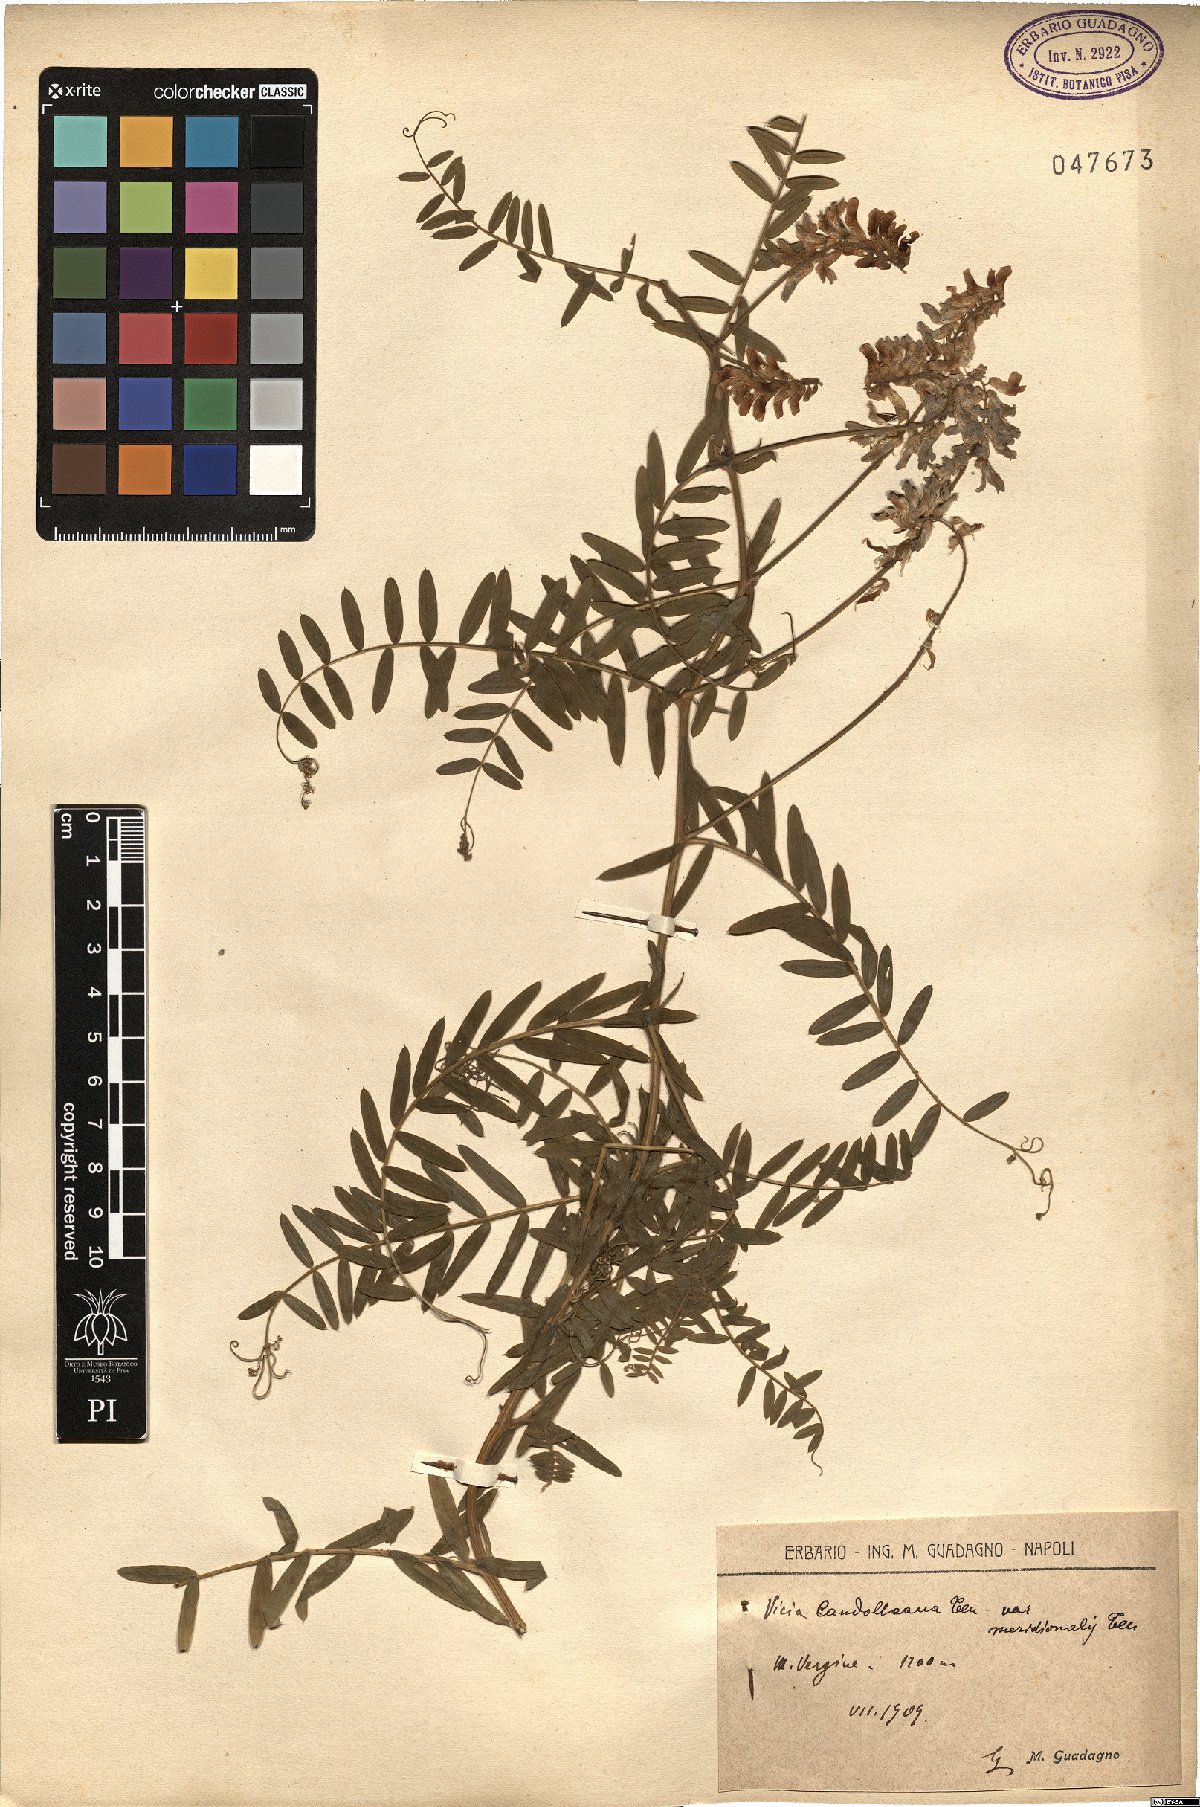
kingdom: Plantae
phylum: Tracheophyta
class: Magnoliopsida
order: Fabales
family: Fabaceae
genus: Vicia
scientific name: Vicia incana
